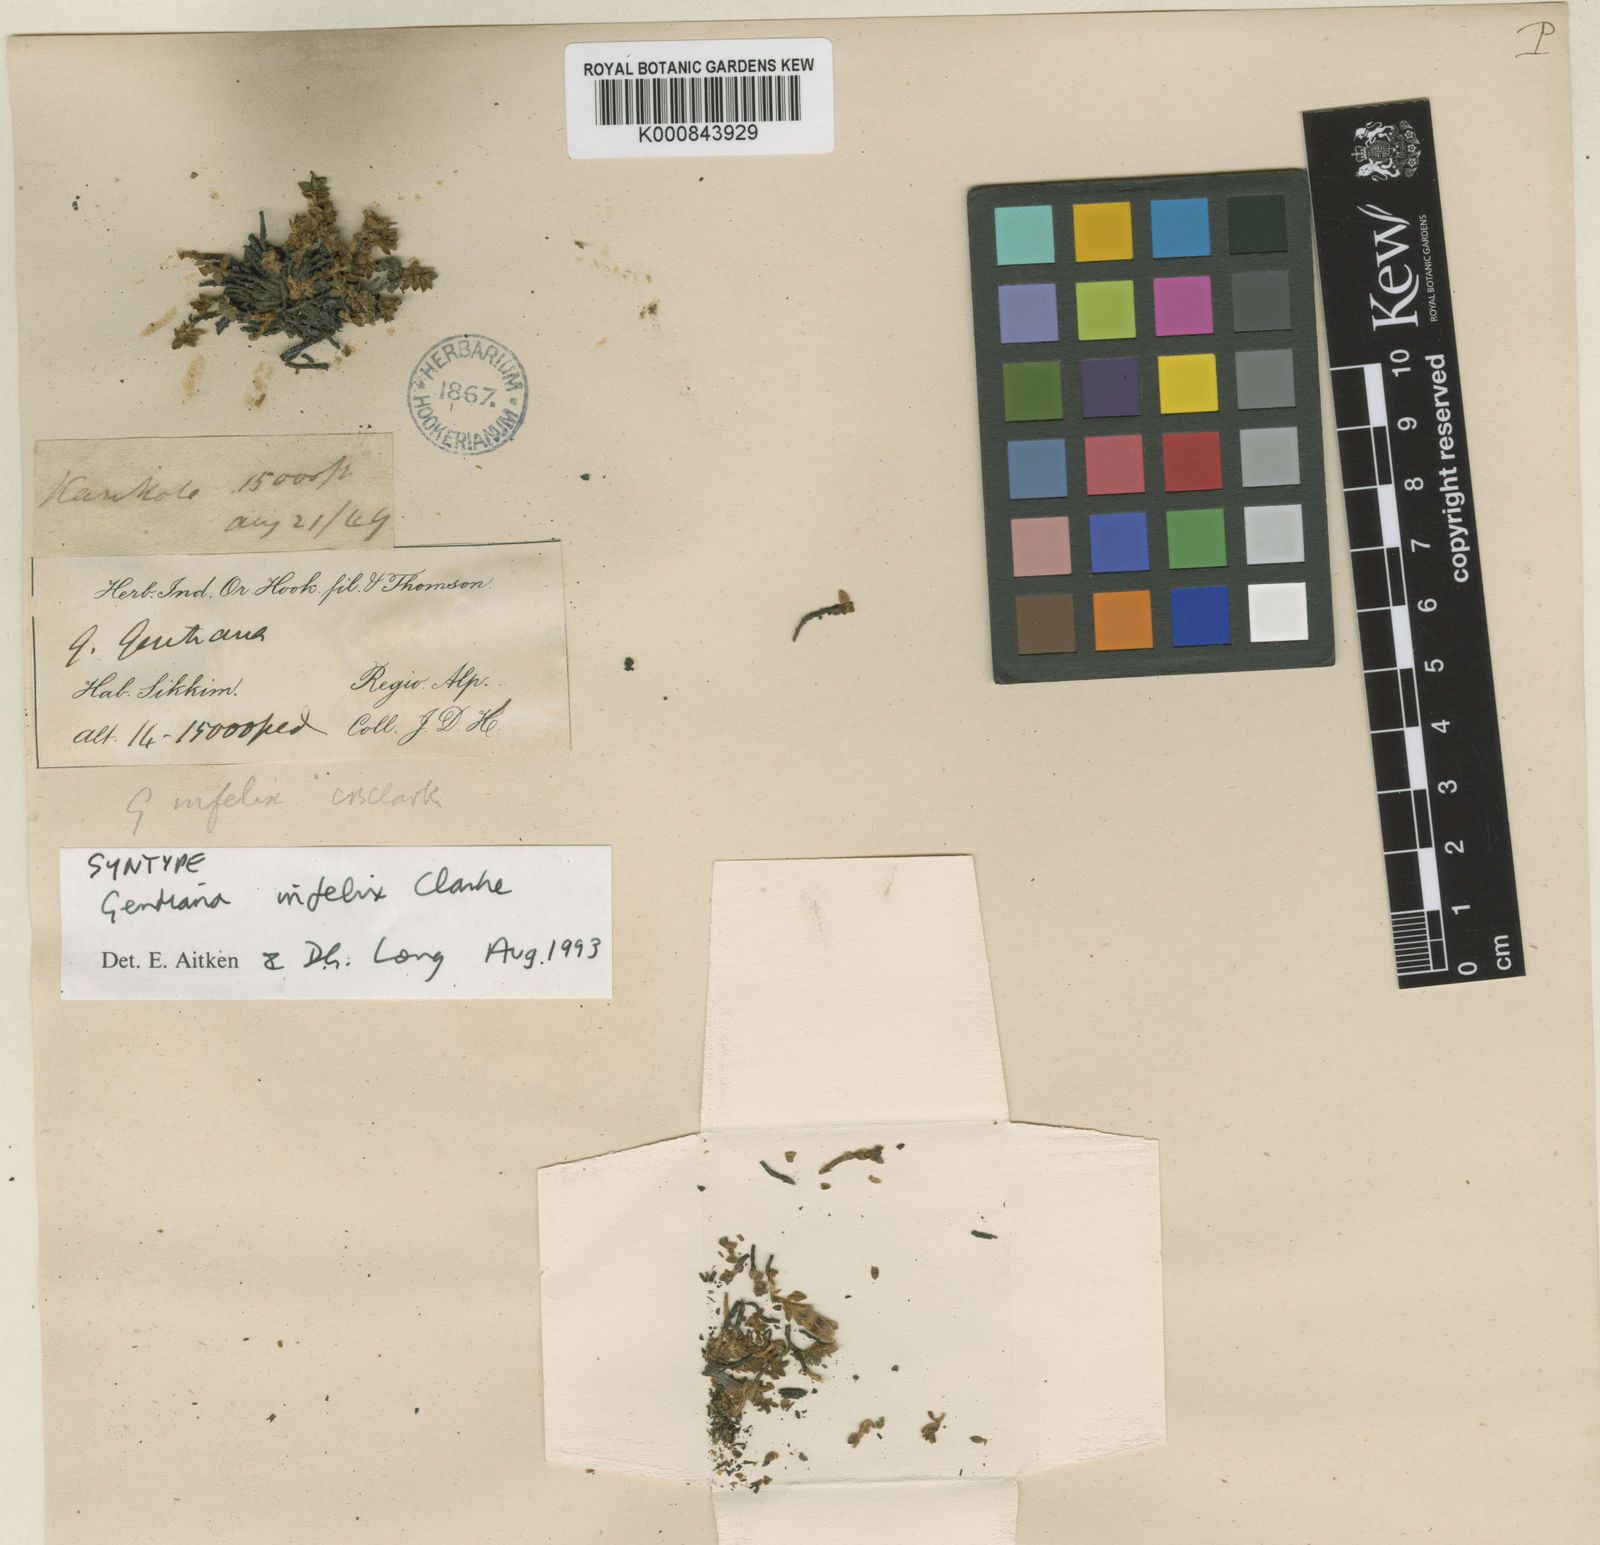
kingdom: Plantae
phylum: Tracheophyta
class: Magnoliopsida
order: Gentianales
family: Gentianaceae
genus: Kuepferia
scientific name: Kuepferia infelix
